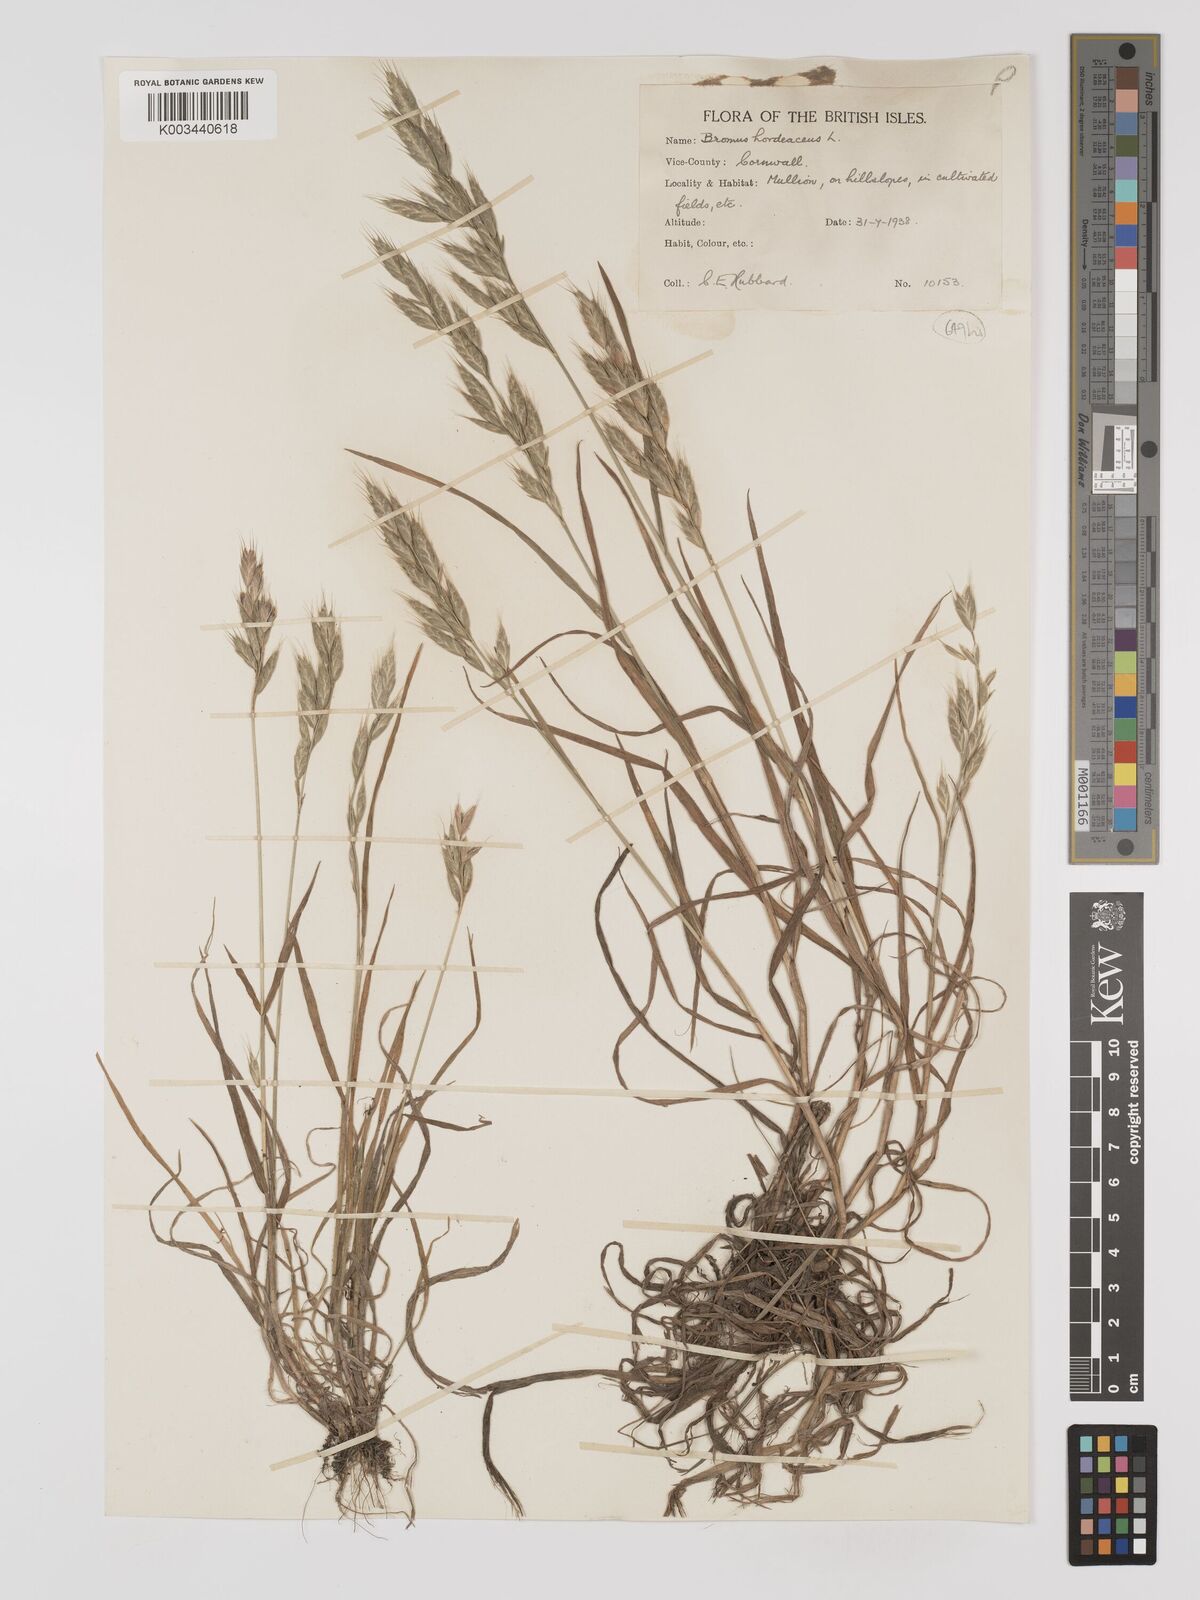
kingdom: Plantae
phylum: Tracheophyta
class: Liliopsida
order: Poales
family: Poaceae
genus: Bromus
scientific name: Bromus hordeaceus
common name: Soft brome
